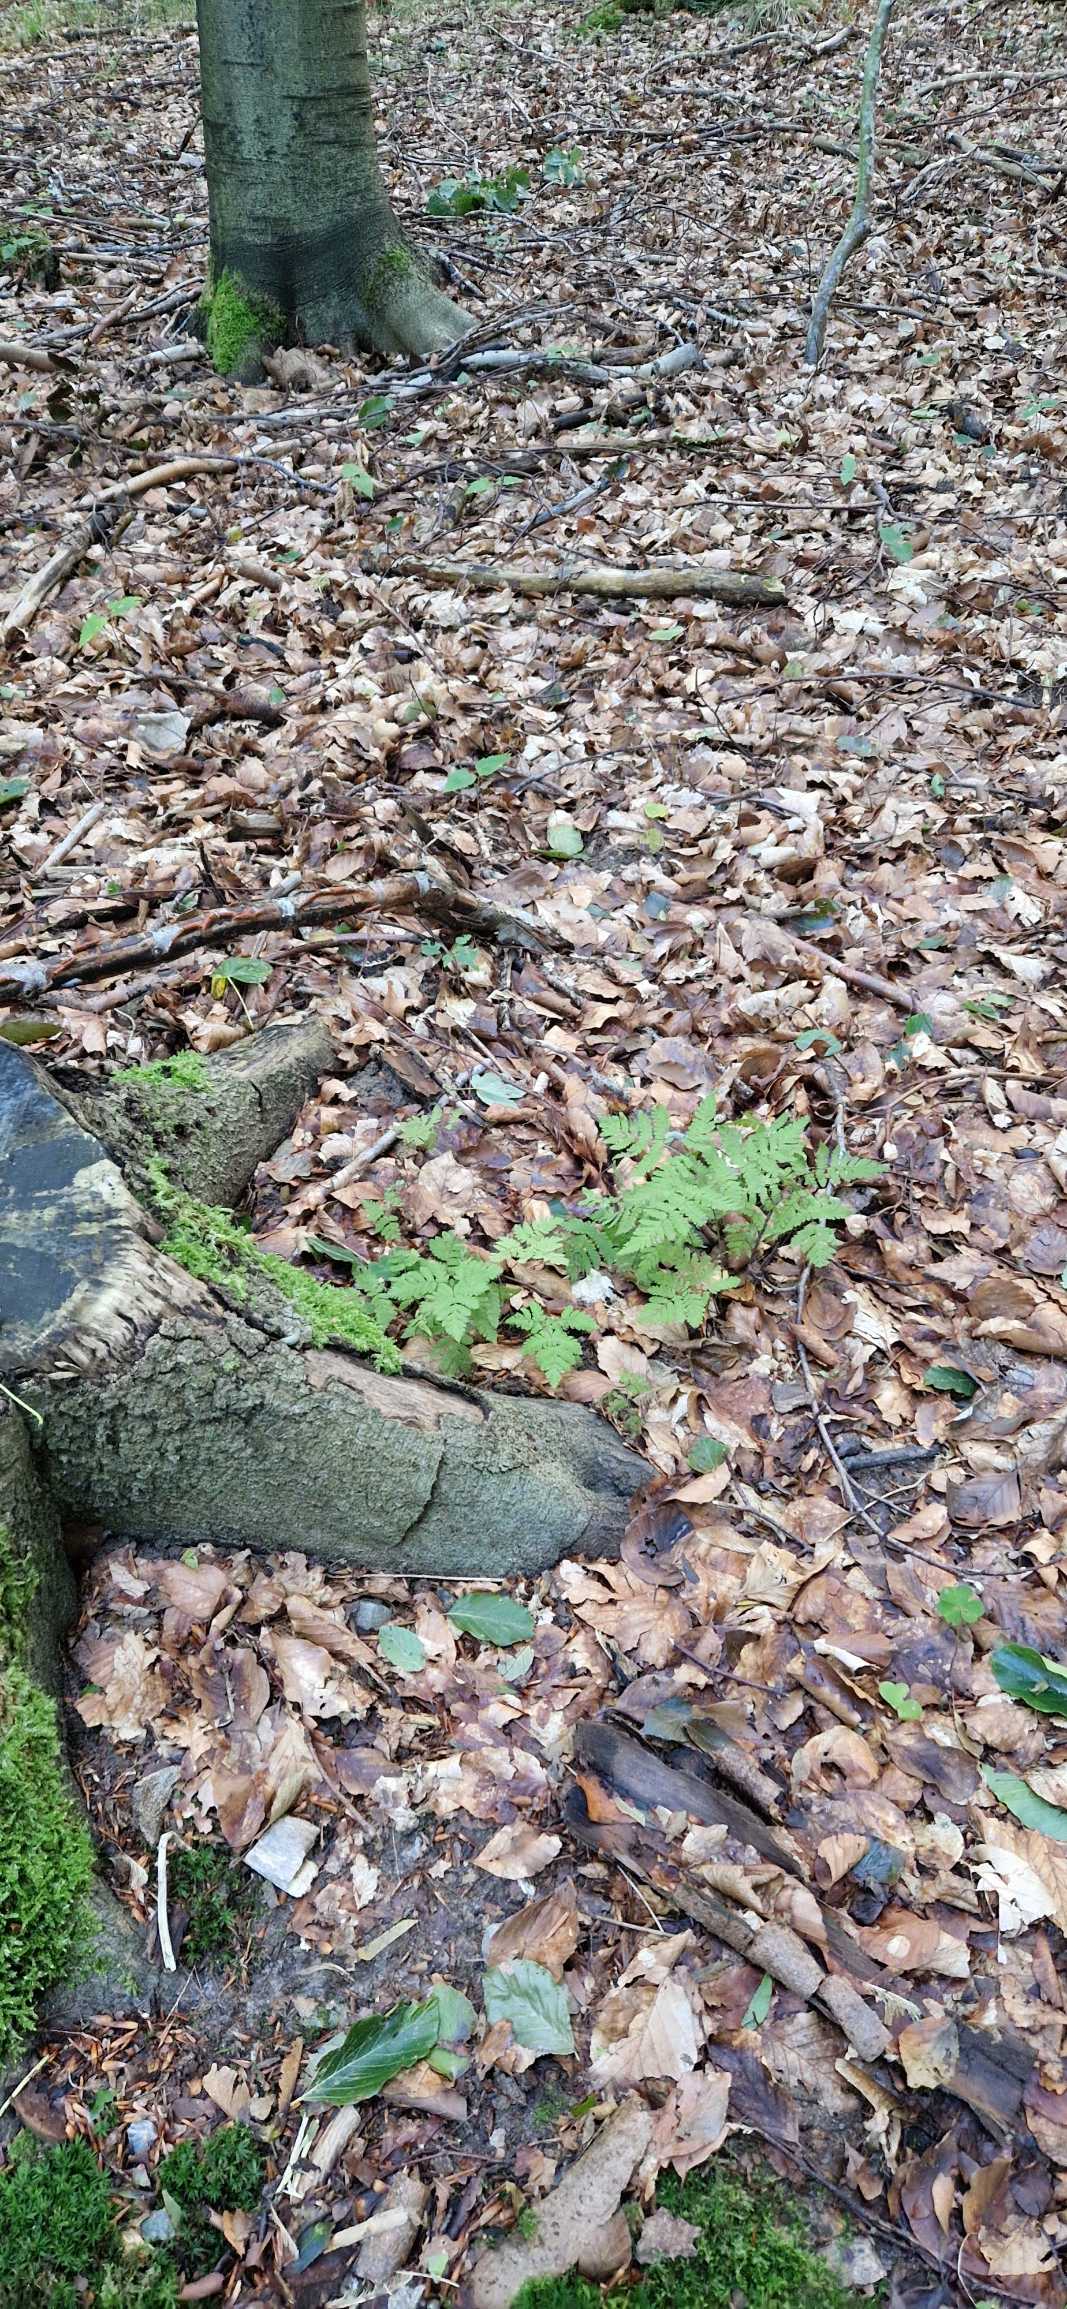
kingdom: Plantae
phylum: Tracheophyta
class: Polypodiopsida
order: Polypodiales
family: Cystopteridaceae
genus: Gymnocarpium
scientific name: Gymnocarpium dryopteris
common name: Tredelt egebregne
